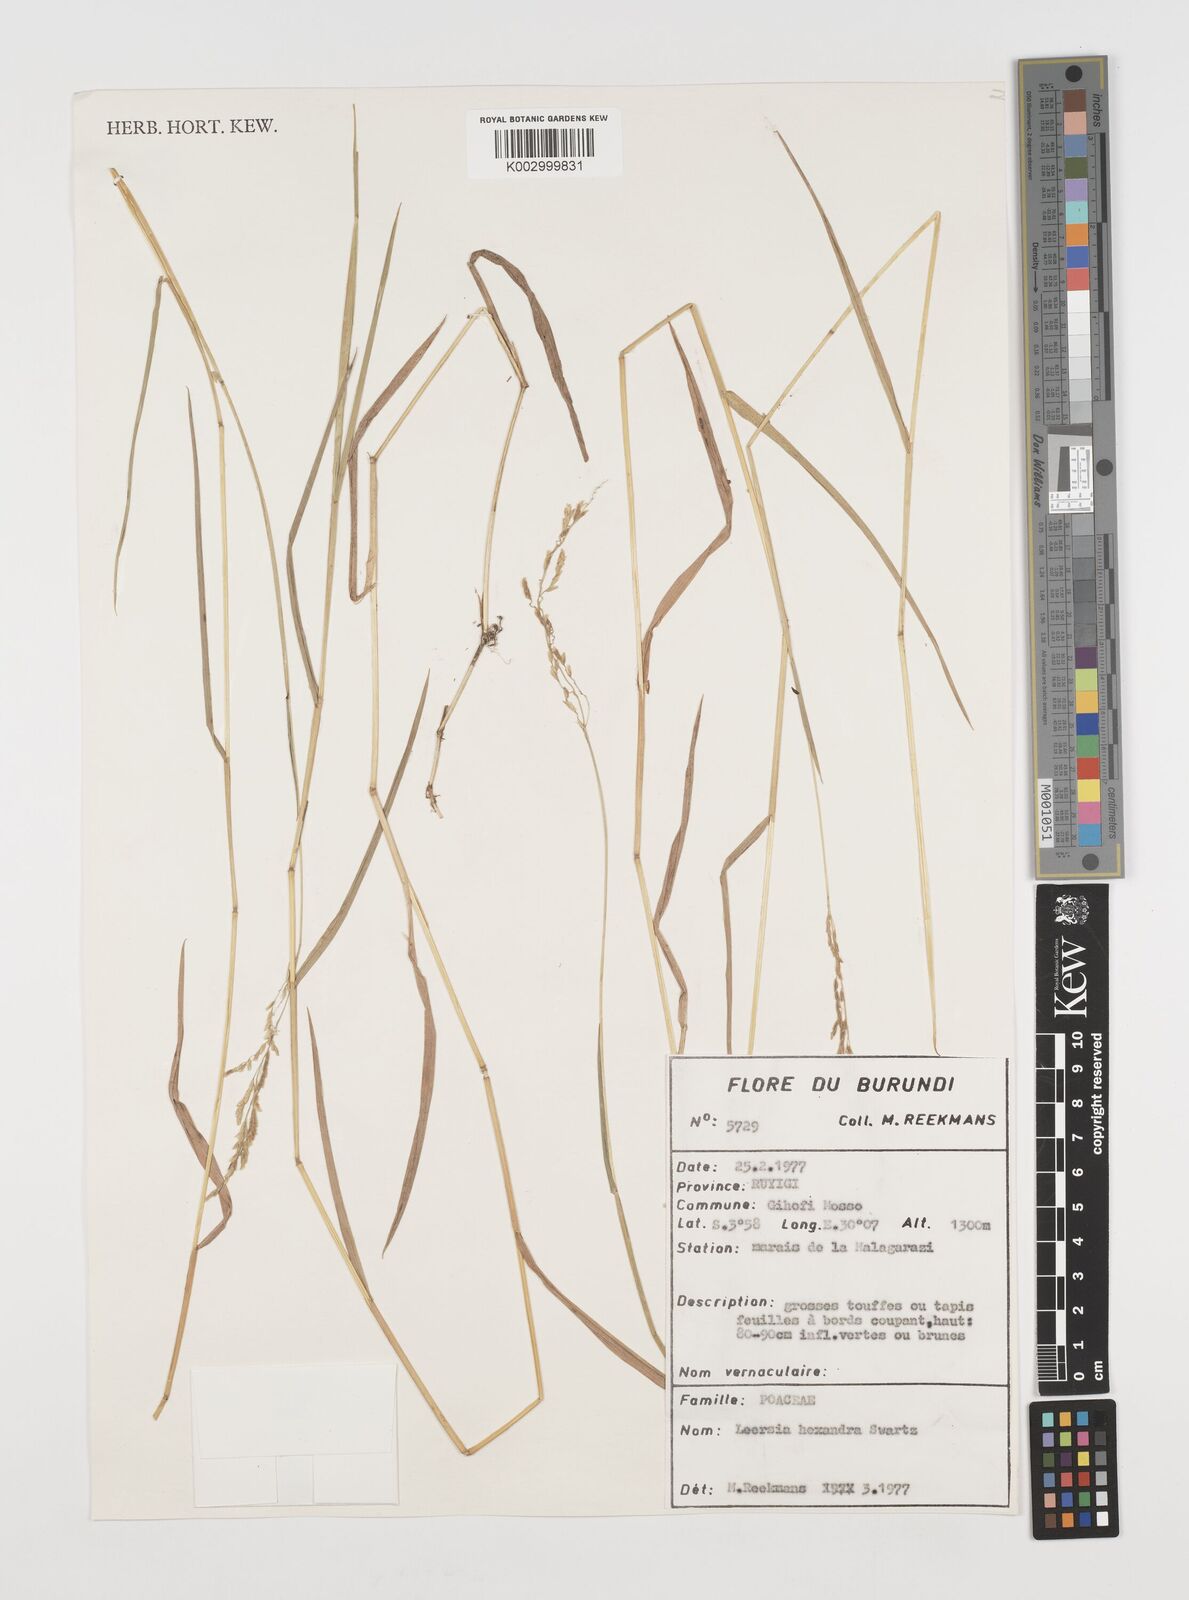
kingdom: Plantae
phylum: Tracheophyta
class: Liliopsida
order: Poales
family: Poaceae
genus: Leersia
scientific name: Leersia hexandra
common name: Southern cut grass
